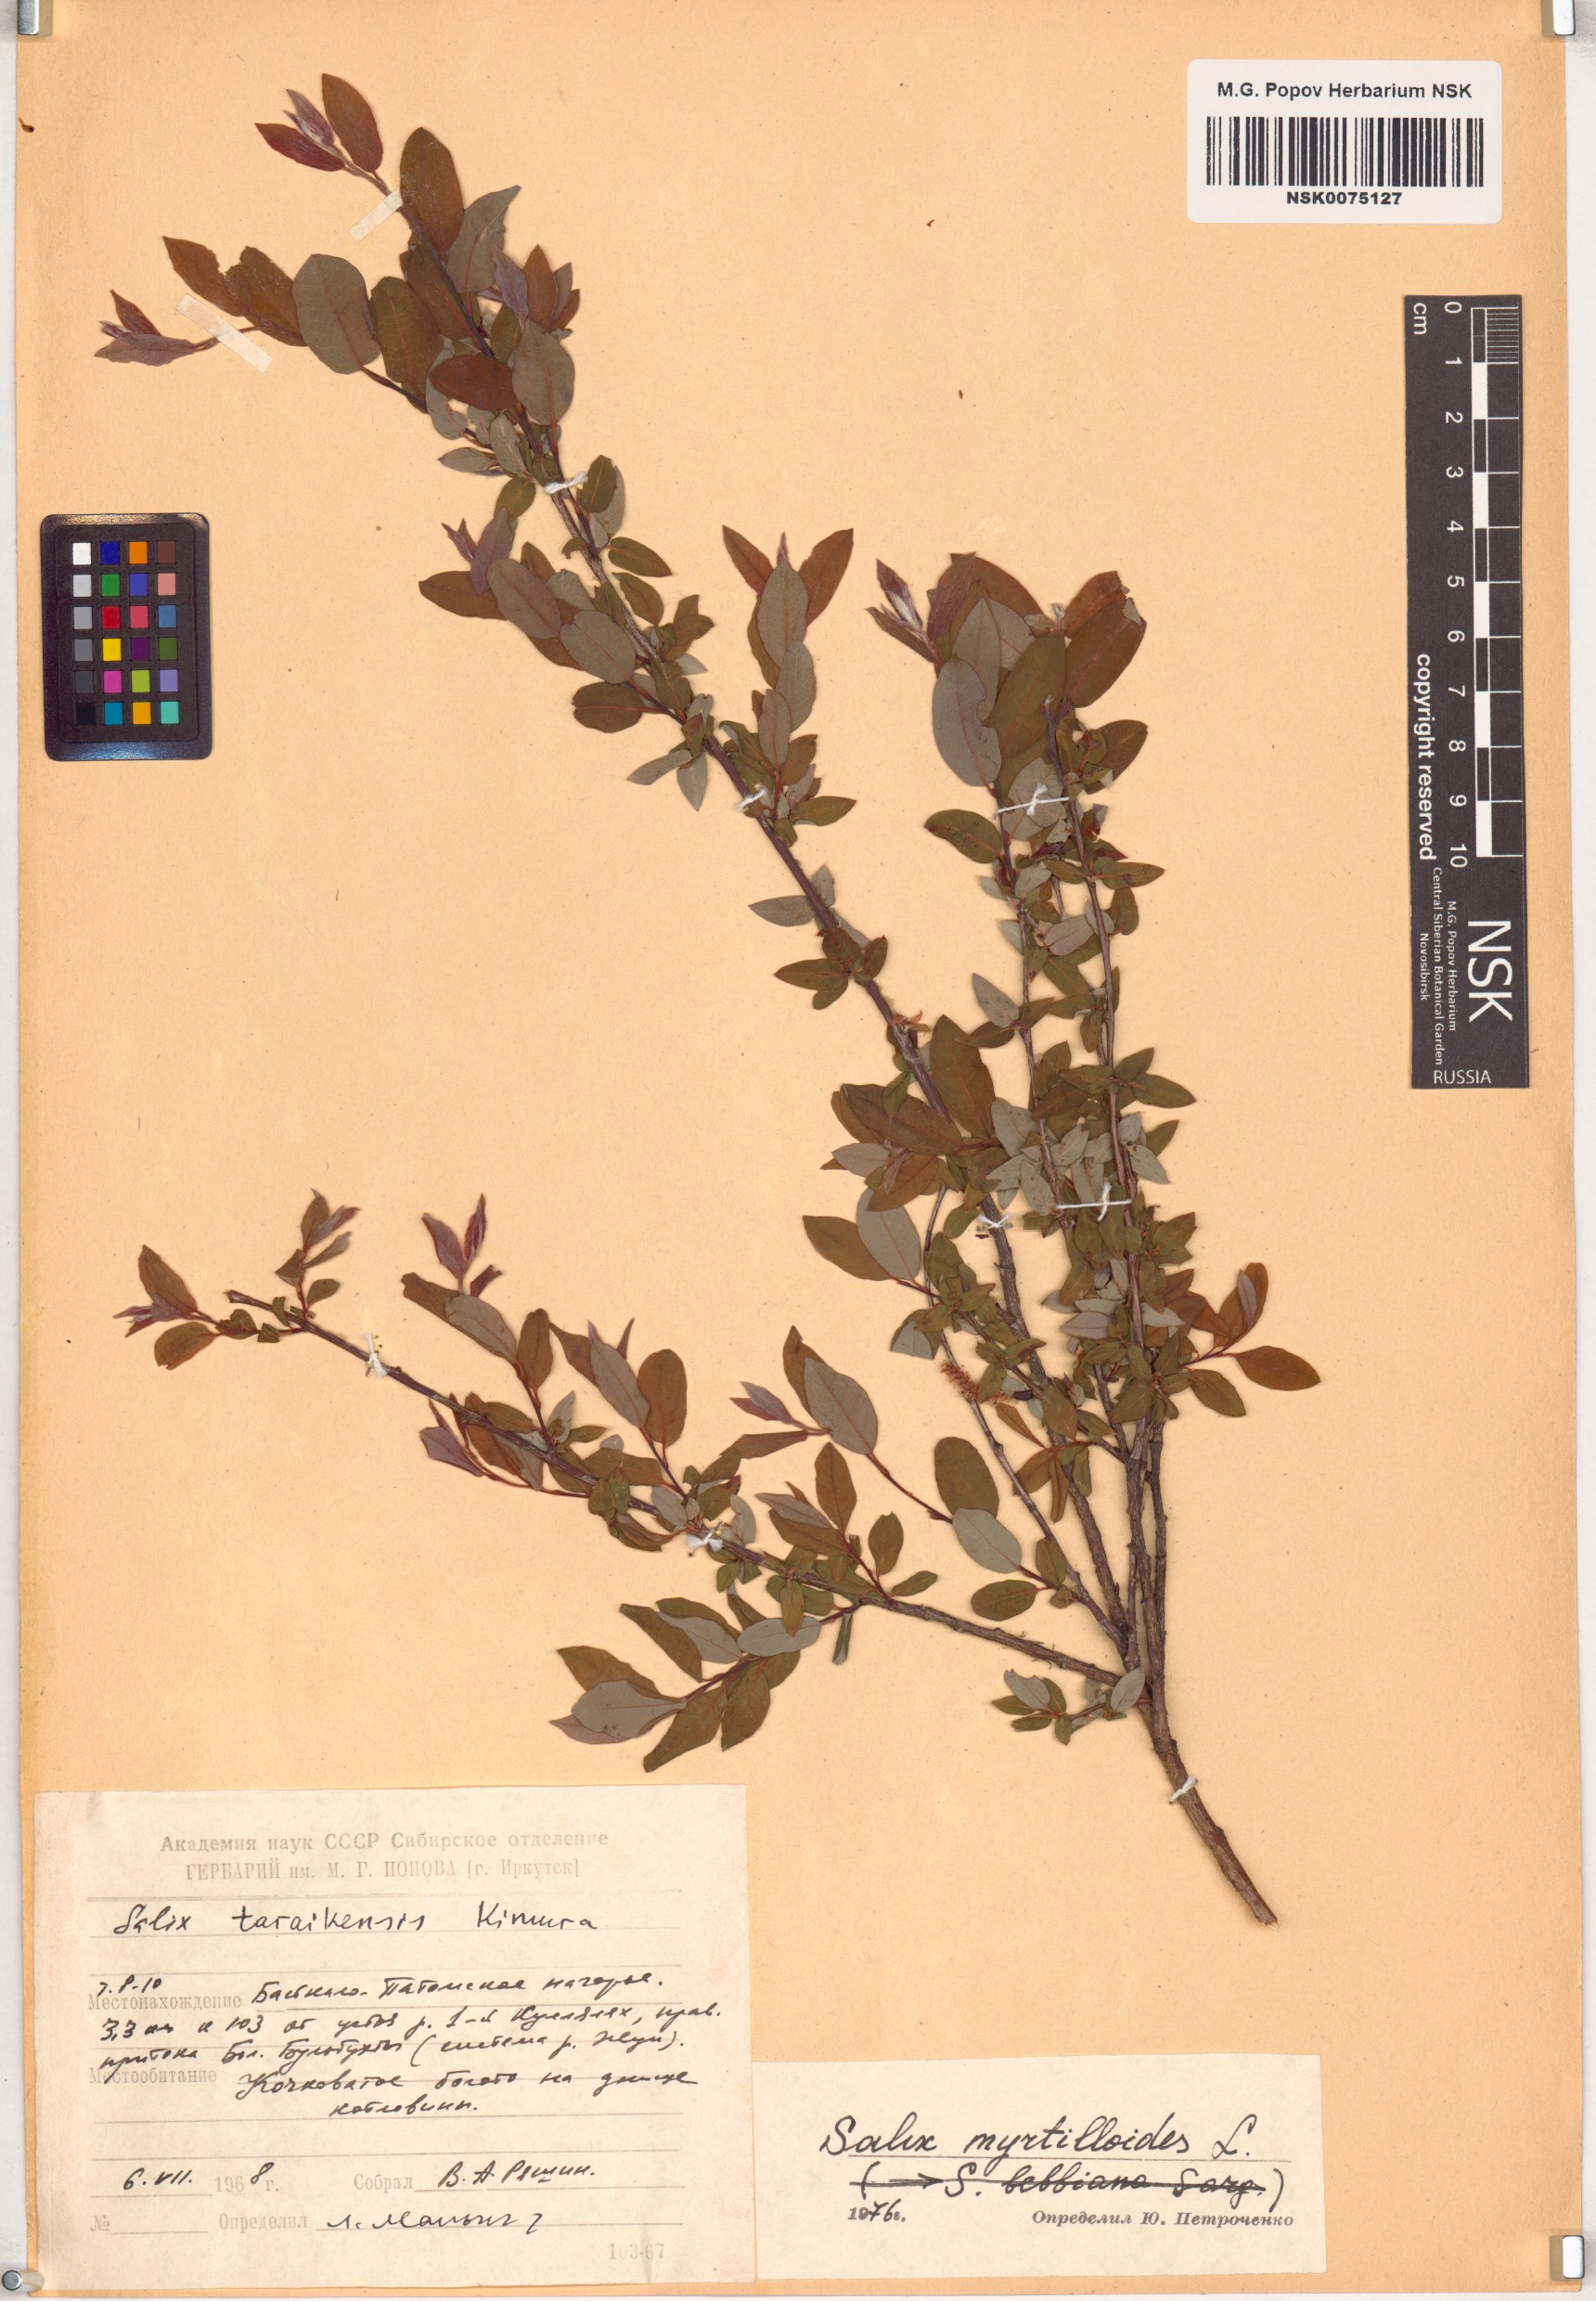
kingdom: Plantae
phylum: Tracheophyta
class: Magnoliopsida
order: Malpighiales
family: Salicaceae
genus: Salix
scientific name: Salix myrtilloides
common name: Myrtle-leaved willow
